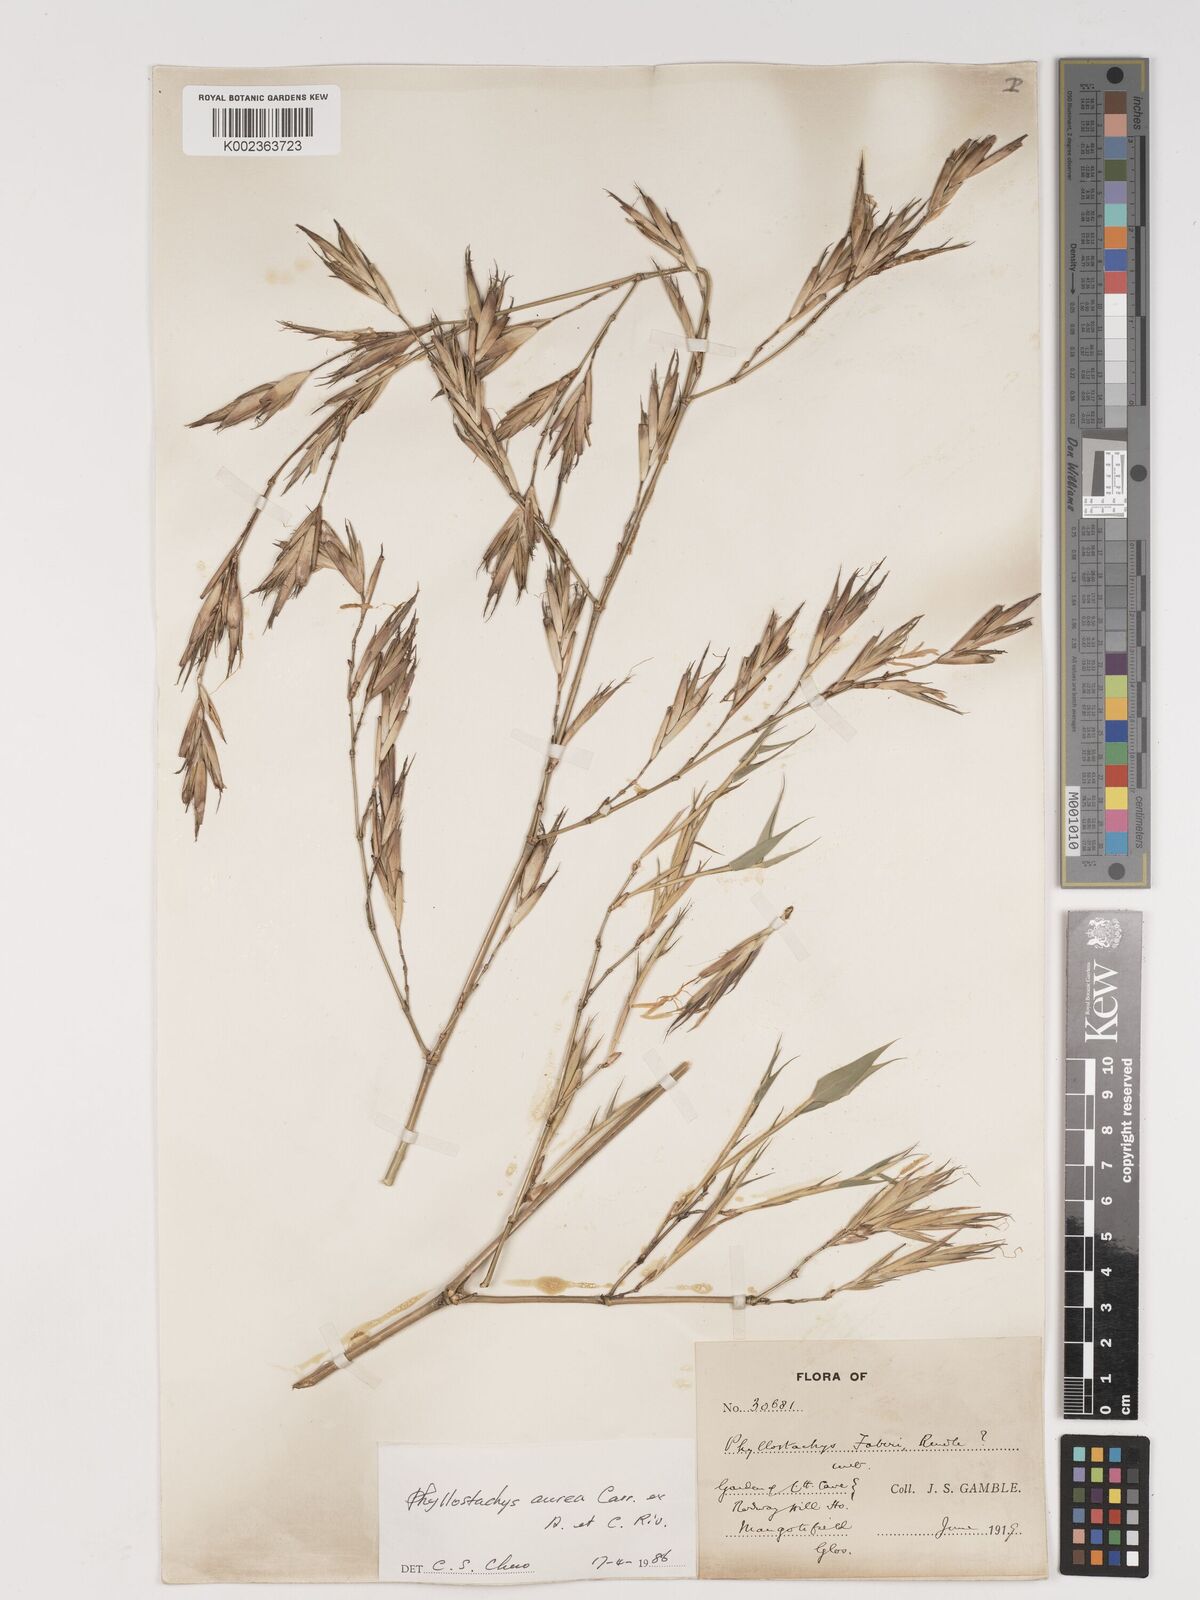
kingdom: Plantae
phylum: Tracheophyta
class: Liliopsida
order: Poales
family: Poaceae
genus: Phyllostachys
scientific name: Phyllostachys aurea
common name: Golden bamboo
